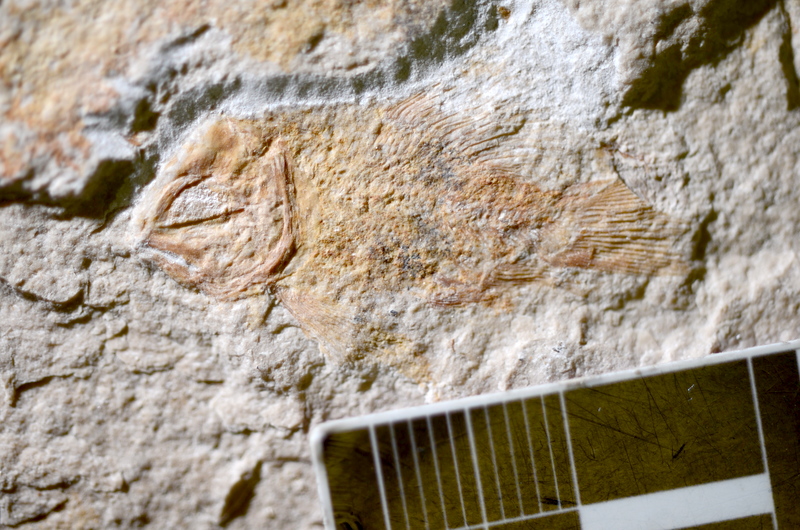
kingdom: Animalia
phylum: Chordata
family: Macrosemiidae
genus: Voelklichthys
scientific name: Voelklichthys comitatus
